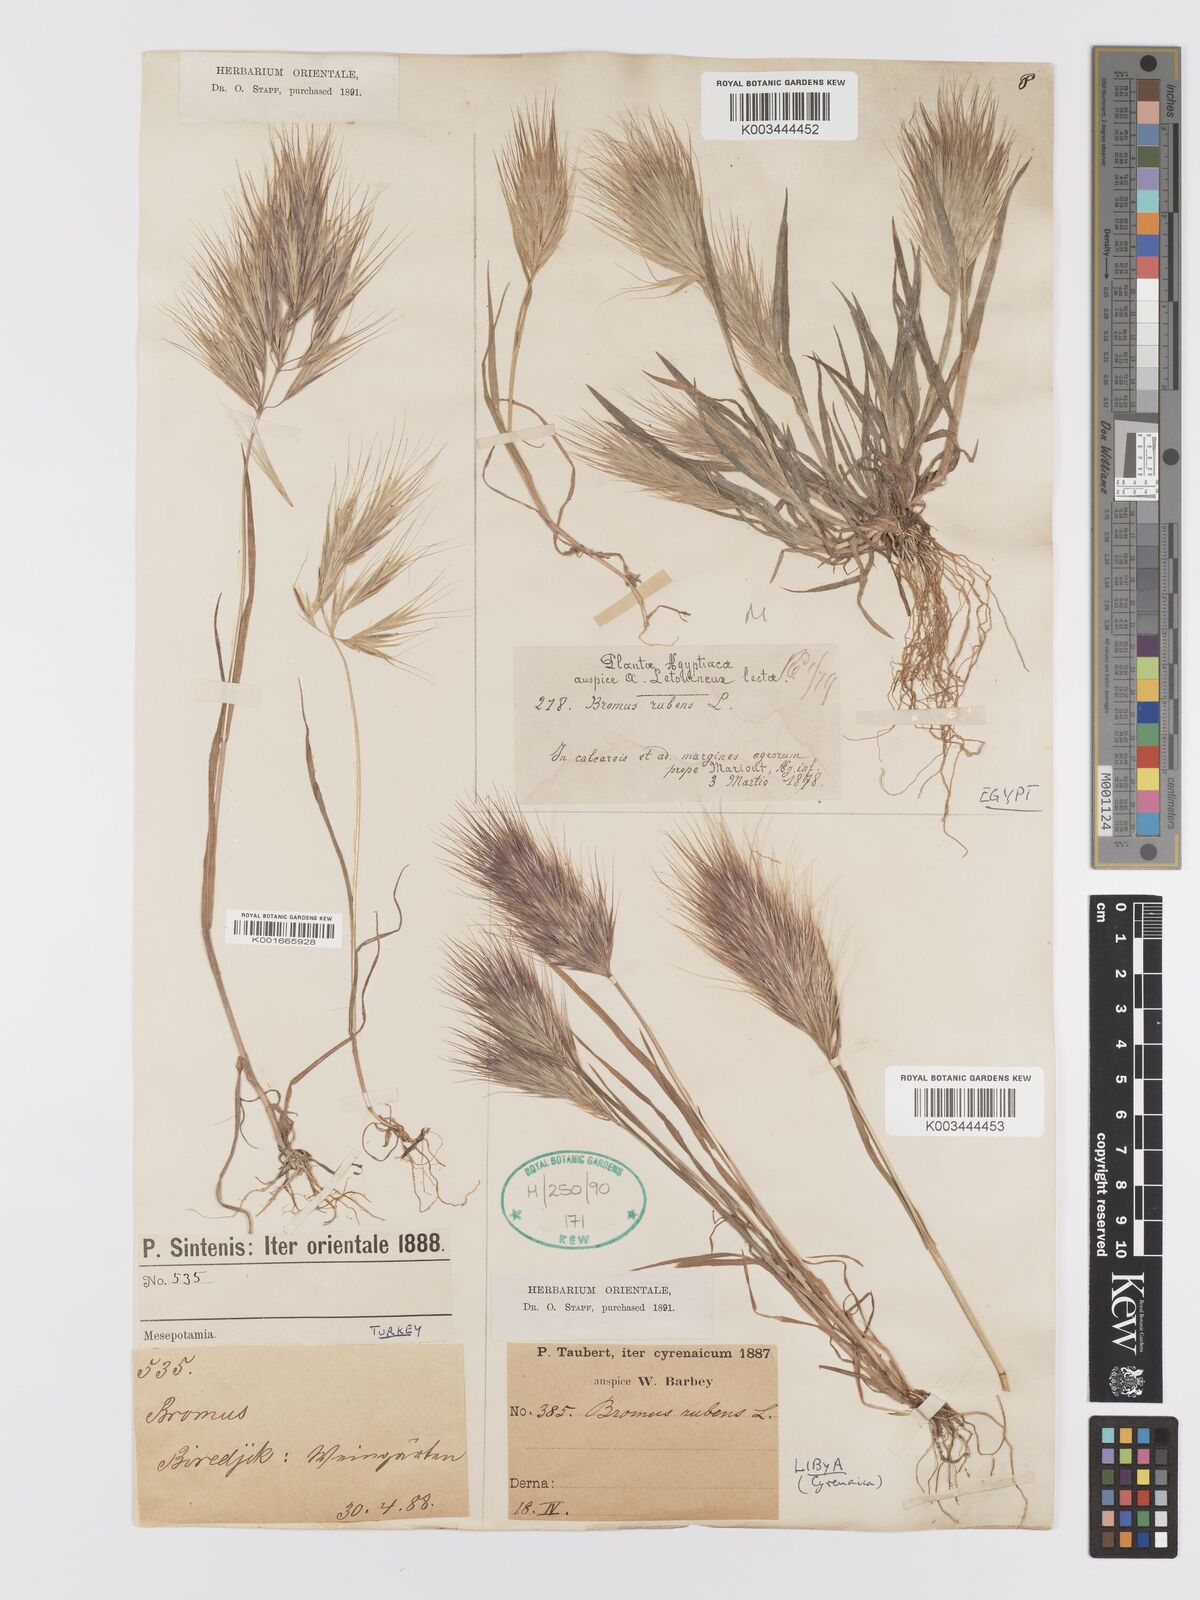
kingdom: Plantae
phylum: Tracheophyta
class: Liliopsida
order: Poales
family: Poaceae
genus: Bromus
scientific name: Bromus rubens
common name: Red brome
